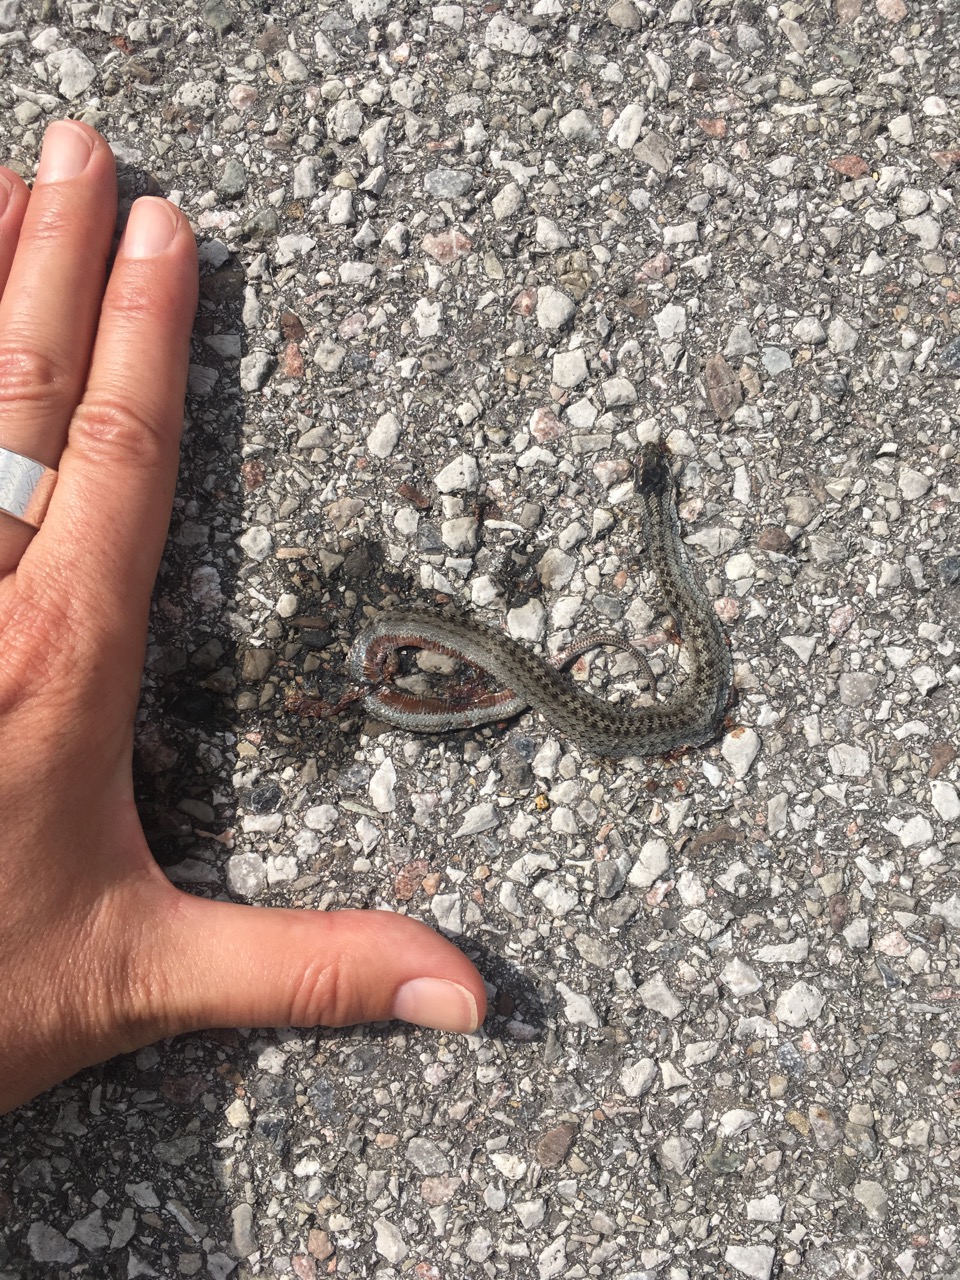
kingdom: Animalia
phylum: Chordata
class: Squamata
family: Colubridae
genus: Coronella
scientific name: Coronella austriaca
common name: Smooth snake
